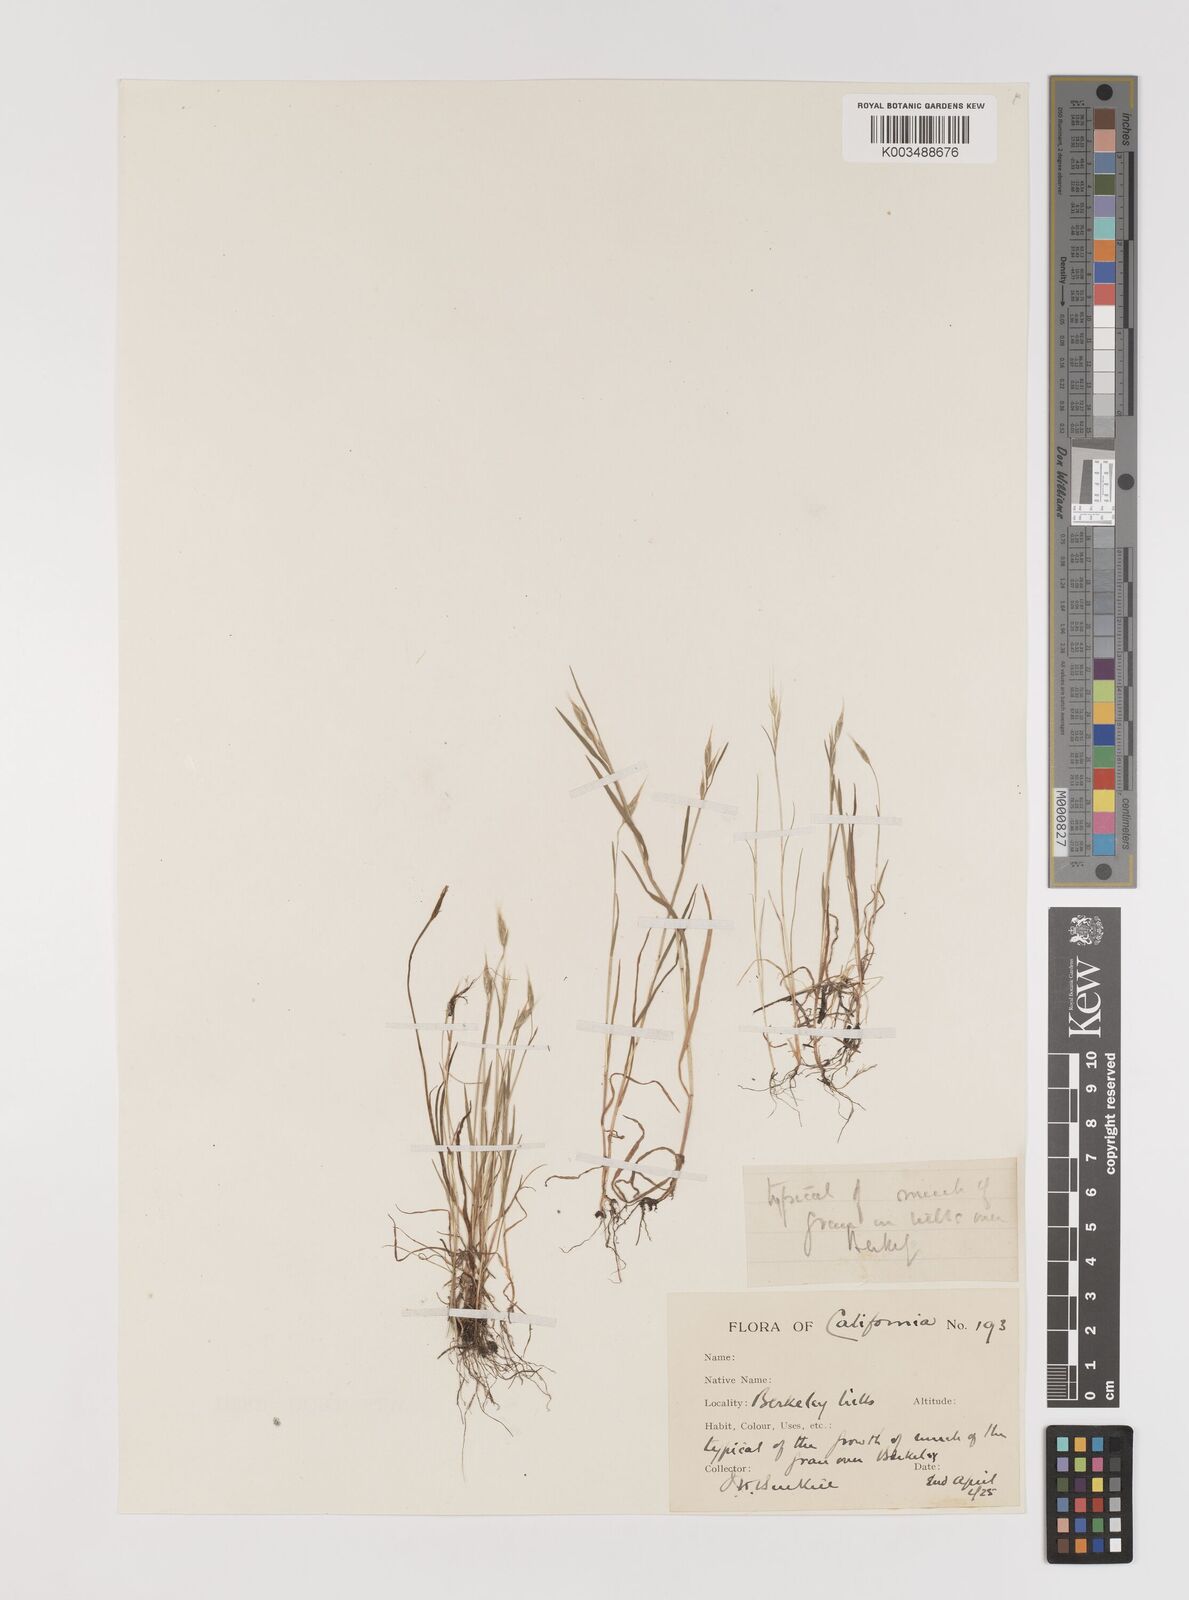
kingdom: Plantae
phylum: Tracheophyta
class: Liliopsida
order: Poales
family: Poaceae
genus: Bromus
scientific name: Bromus hordeaceus
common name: Soft brome
